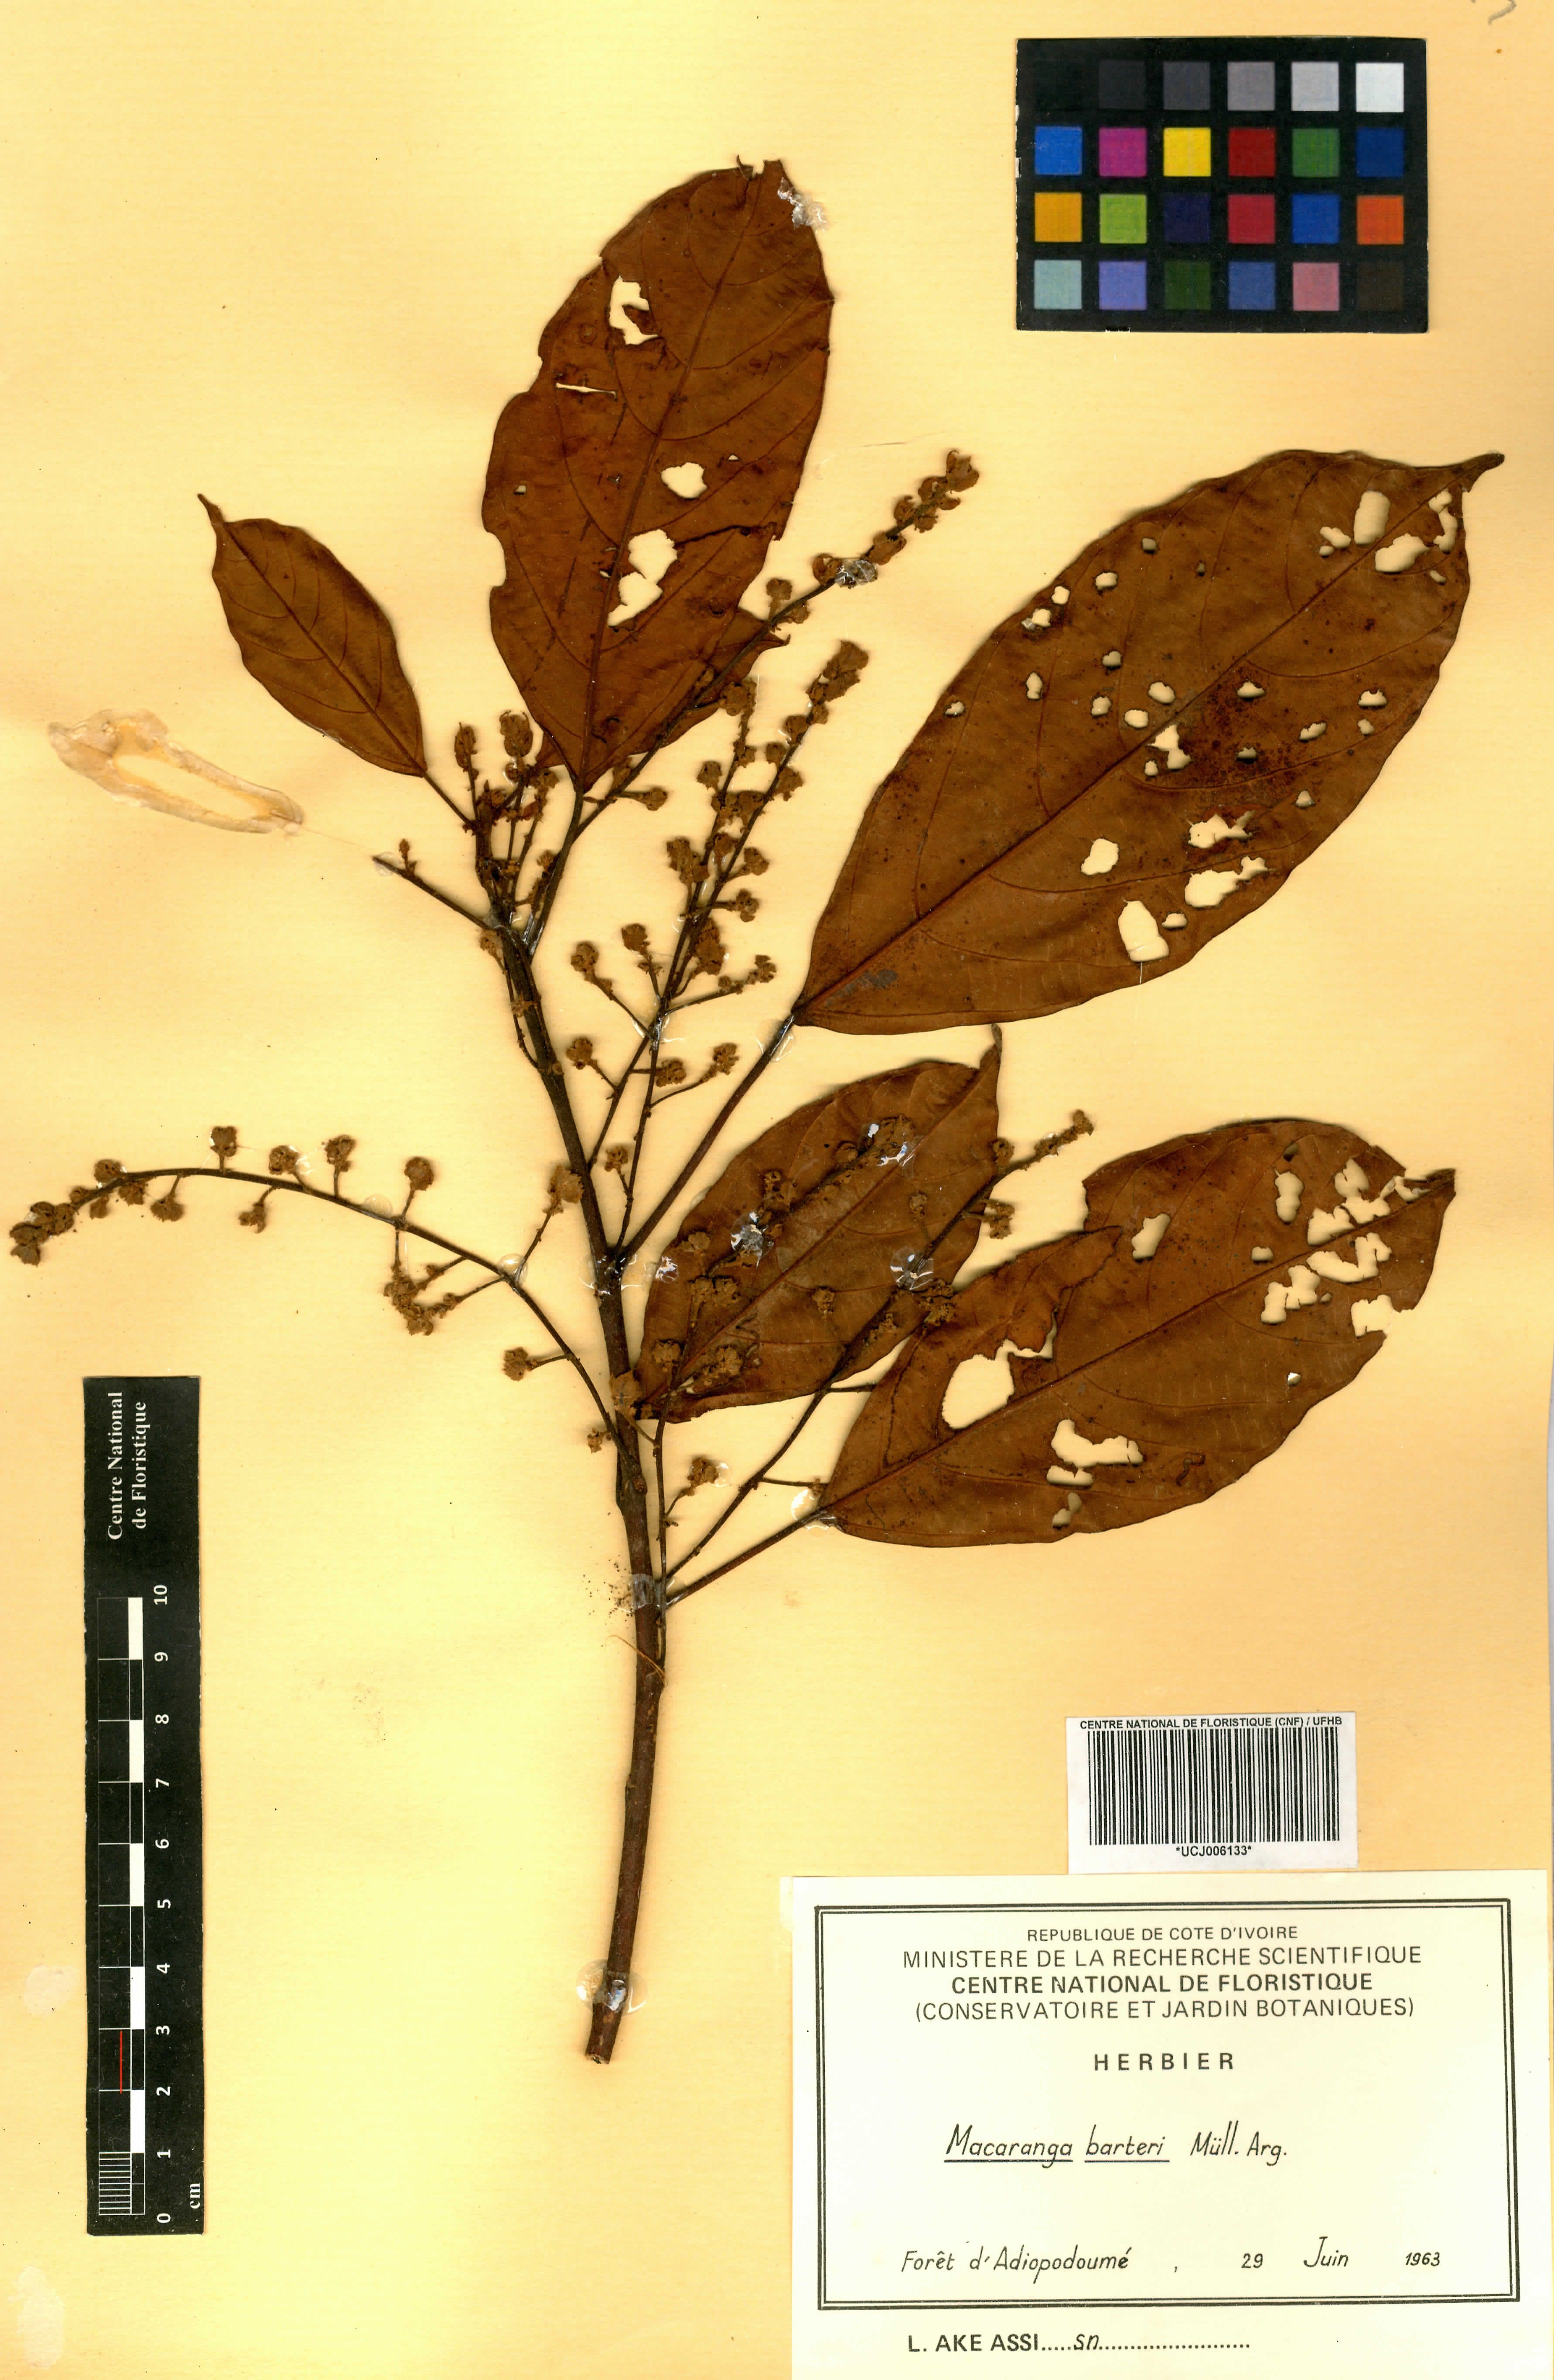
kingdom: Plantae
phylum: Tracheophyta
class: Magnoliopsida
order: Malpighiales
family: Euphorbiaceae
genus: Macaranga
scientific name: Macaranga barteri
